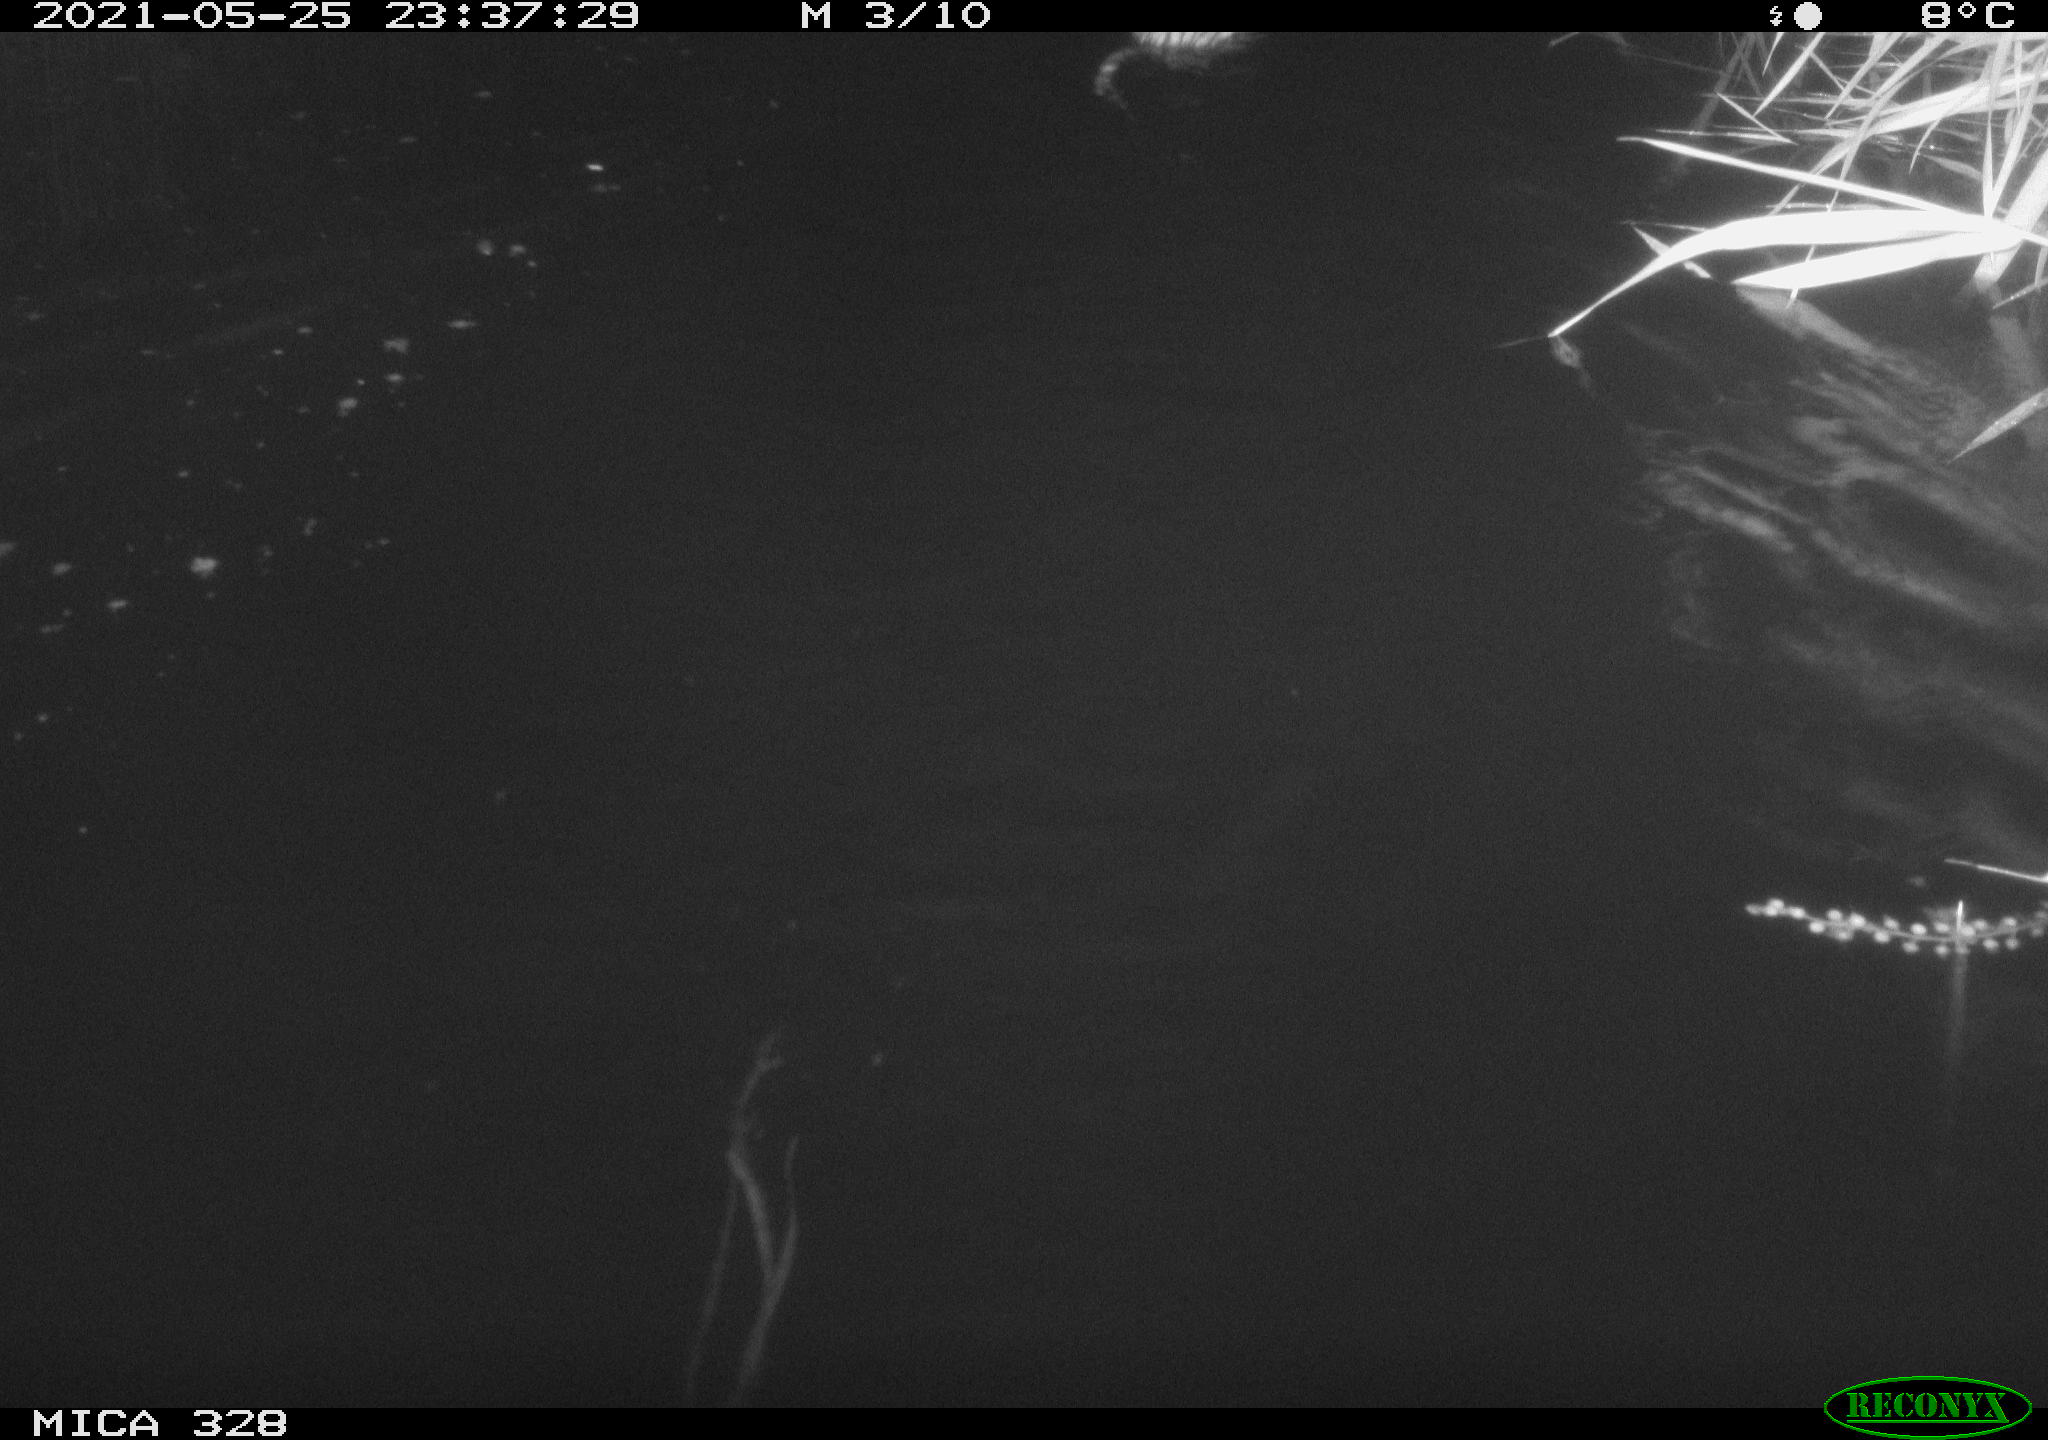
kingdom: Animalia
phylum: Chordata
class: Mammalia
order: Rodentia
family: Cricetidae
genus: Ondatra
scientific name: Ondatra zibethicus
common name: Muskrat
